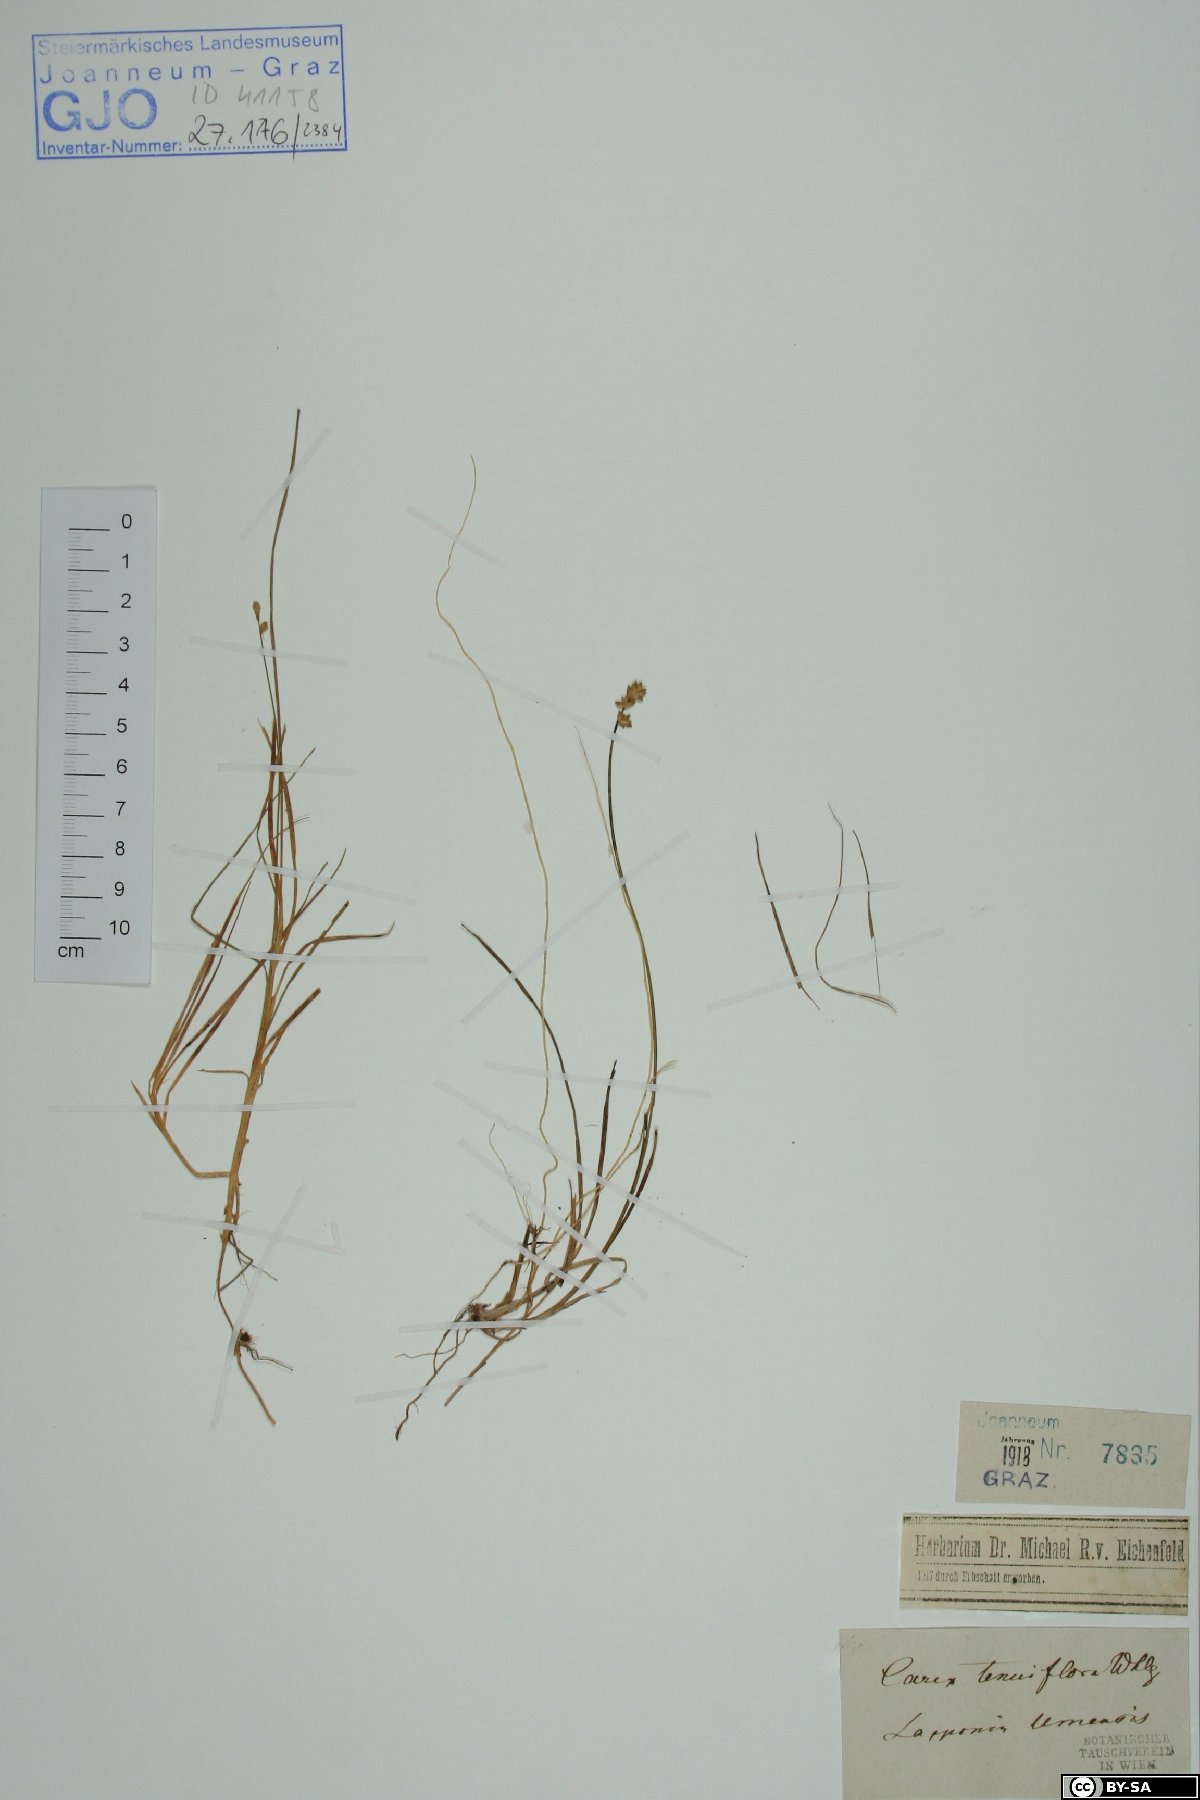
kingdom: Plantae
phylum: Tracheophyta
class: Liliopsida
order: Poales
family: Cyperaceae
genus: Carex
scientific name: Carex tenuiflora
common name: Sparse-flowered sedge
